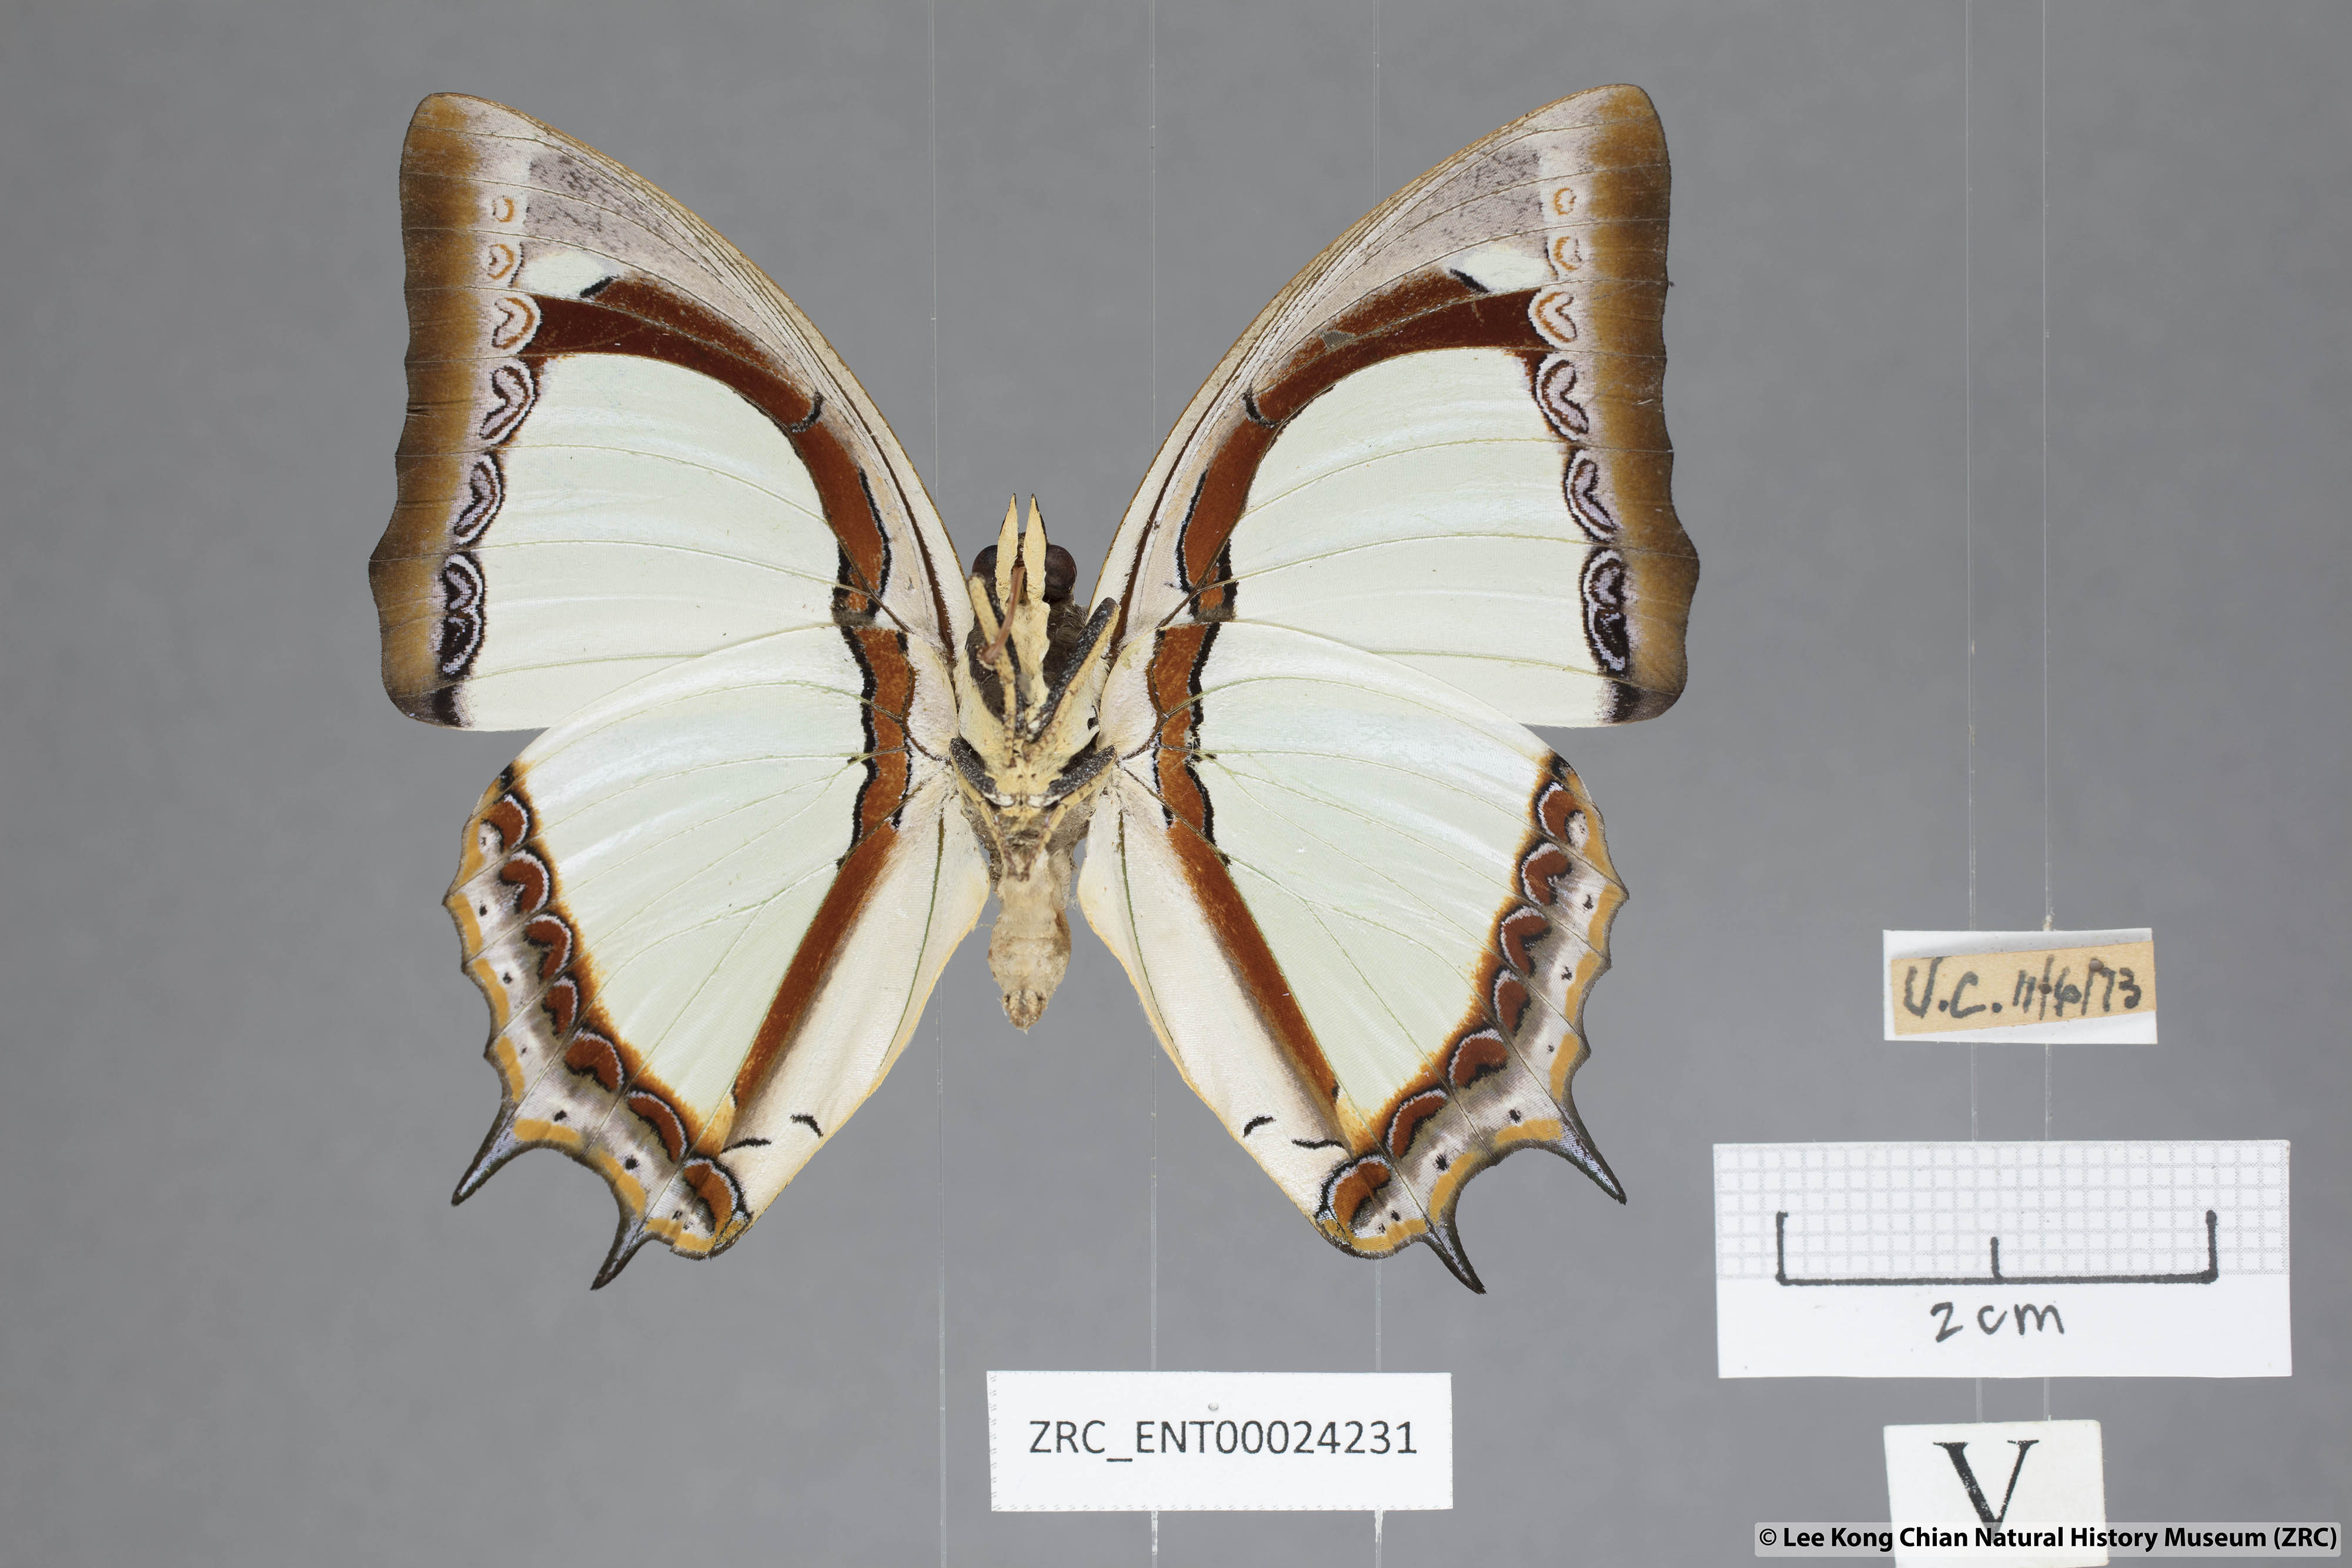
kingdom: Animalia
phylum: Arthropoda
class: Insecta
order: Lepidoptera
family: Nymphalidae
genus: Polyura
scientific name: Polyura jalysus
